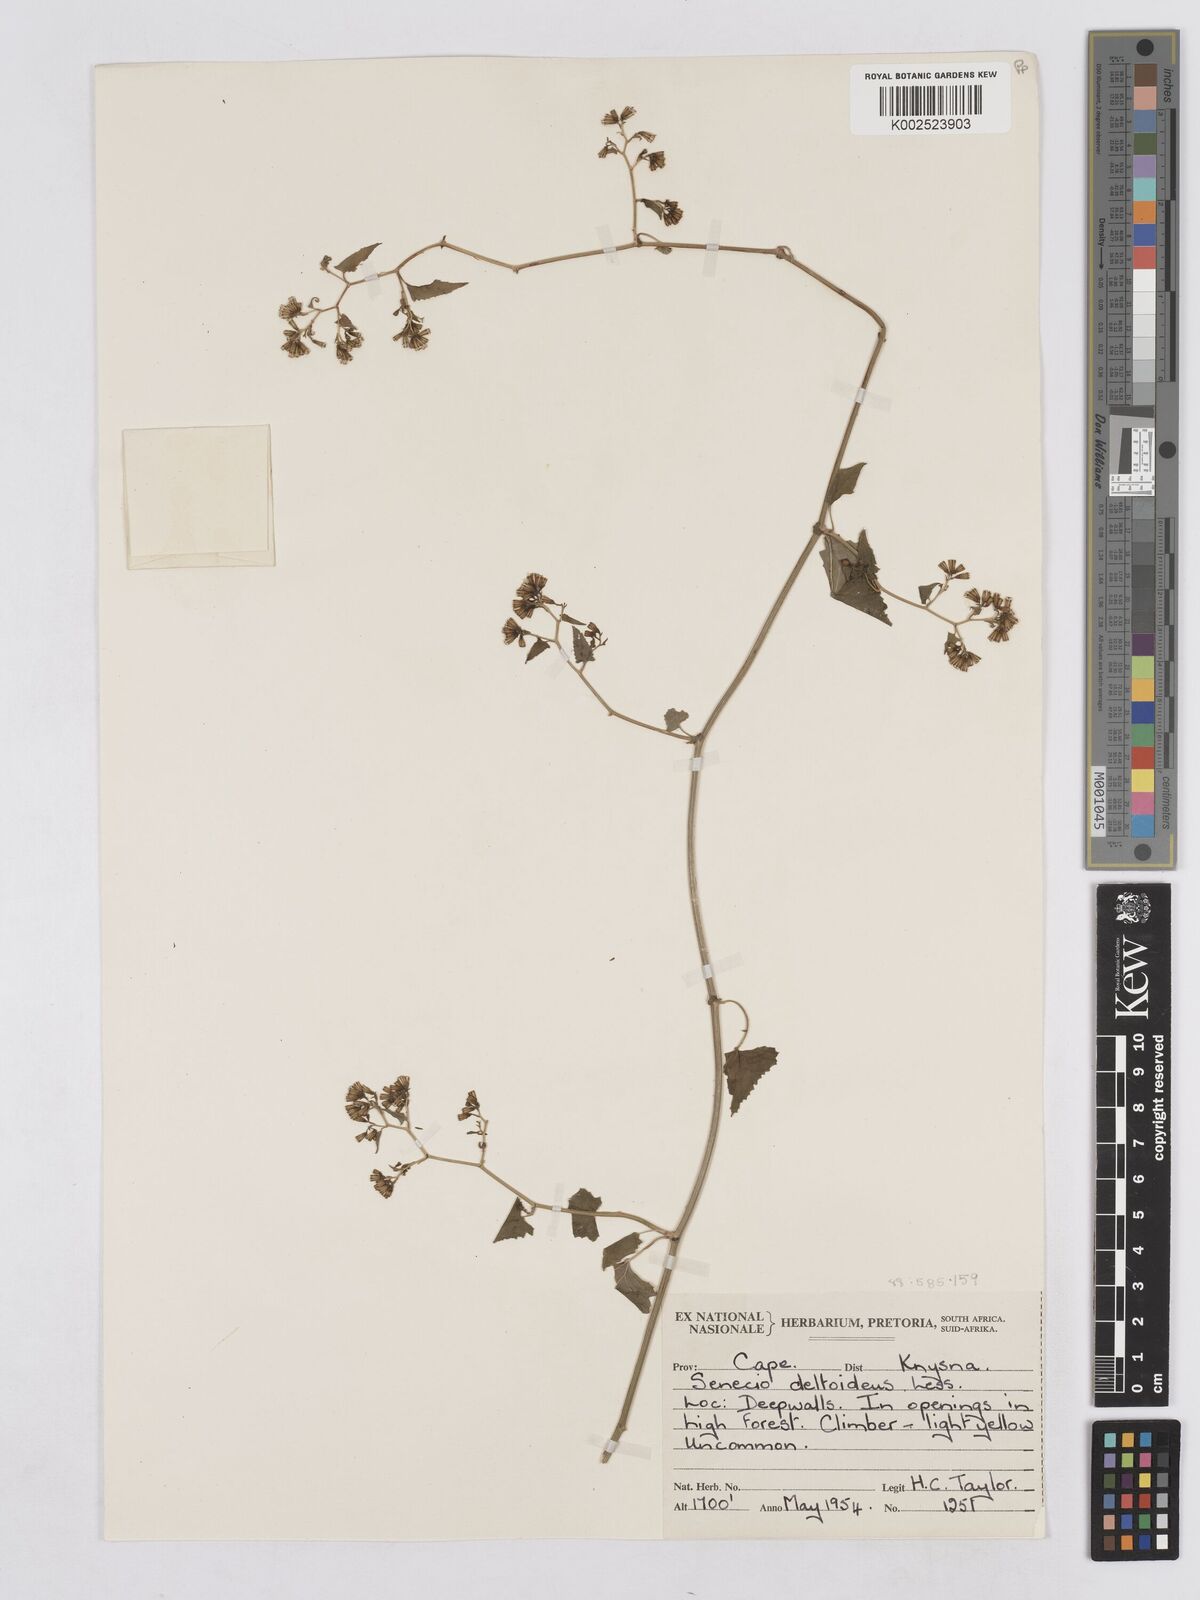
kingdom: Plantae
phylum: Tracheophyta
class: Magnoliopsida
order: Asterales
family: Asteraceae
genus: Senecio
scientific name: Senecio deltoideus
